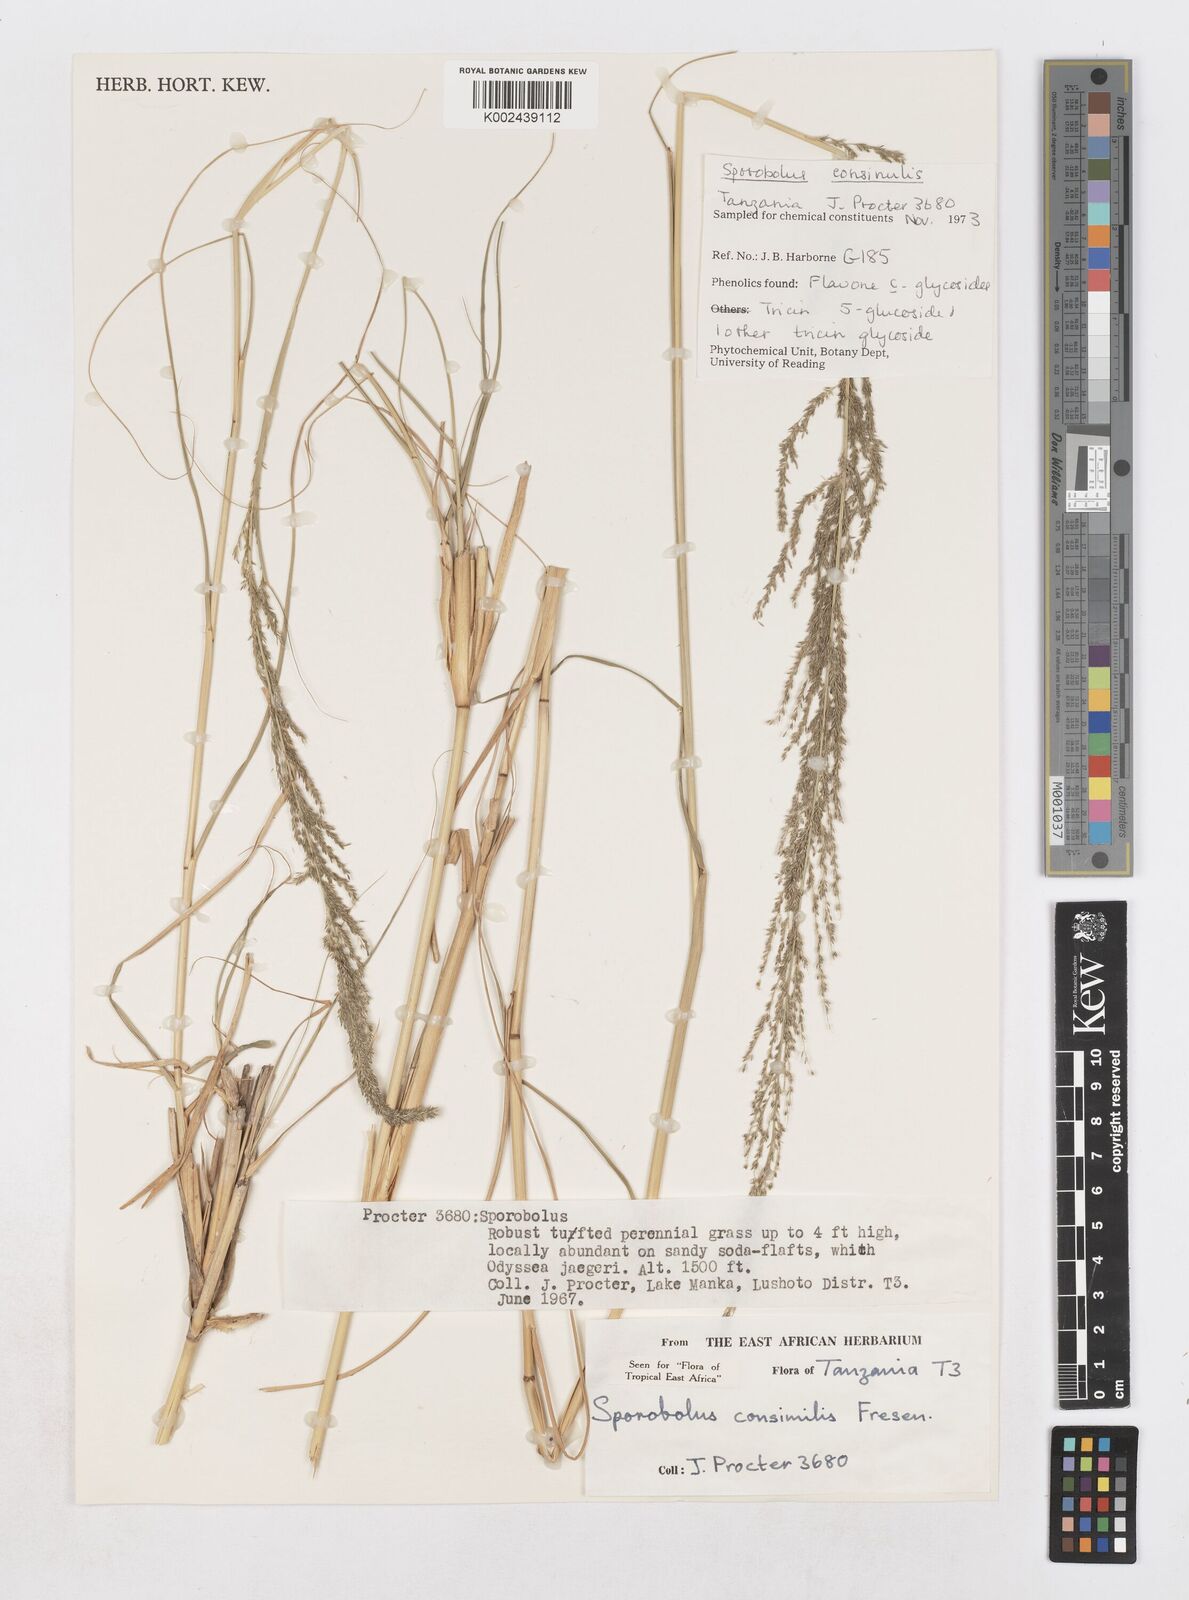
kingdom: Plantae
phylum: Tracheophyta
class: Liliopsida
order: Poales
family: Poaceae
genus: Sporobolus
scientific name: Sporobolus consimilis
